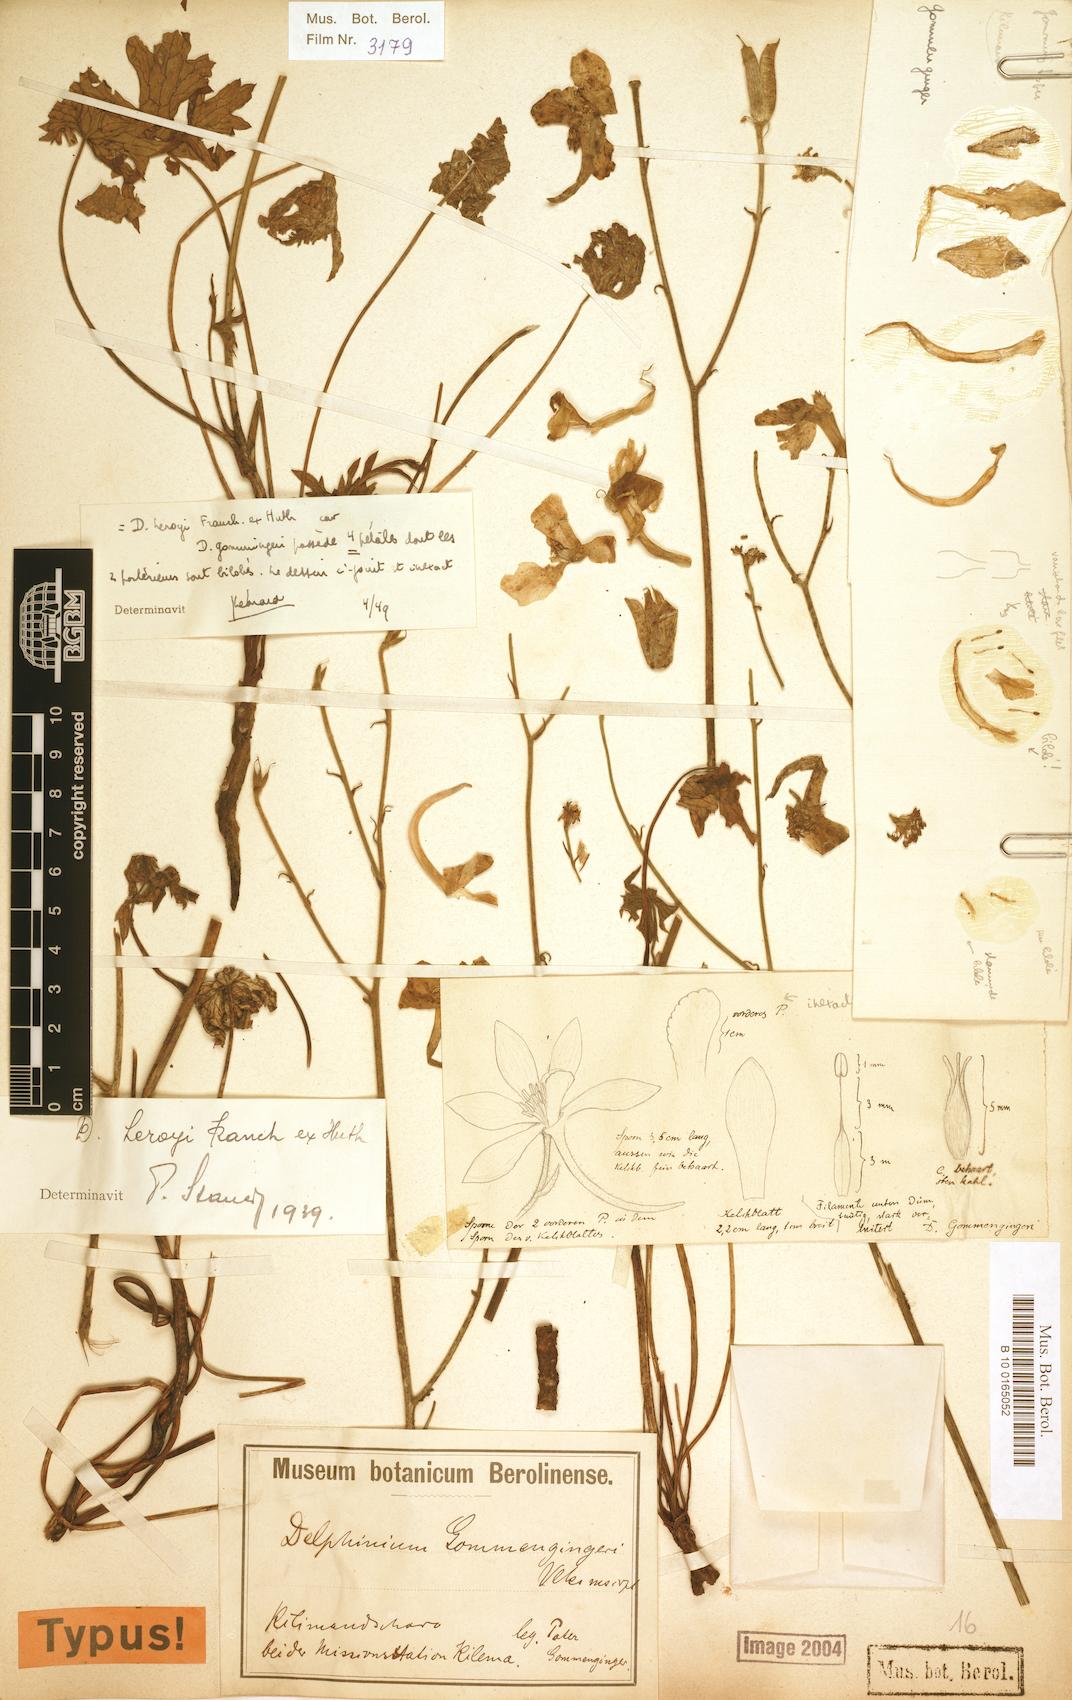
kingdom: Plantae
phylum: Tracheophyta
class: Magnoliopsida
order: Ranunculales
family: Ranunculaceae
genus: Delphinium
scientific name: Delphinium leroyi
